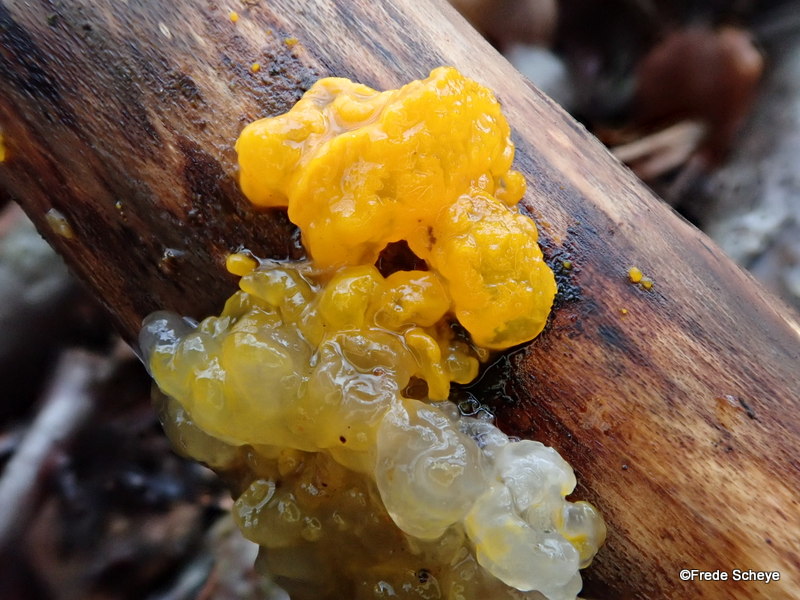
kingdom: Fungi
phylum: Basidiomycota
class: Tremellomycetes
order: Tremellales
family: Tremellaceae
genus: Tremella
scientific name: Tremella mesenterica
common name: gul bævresvamp
